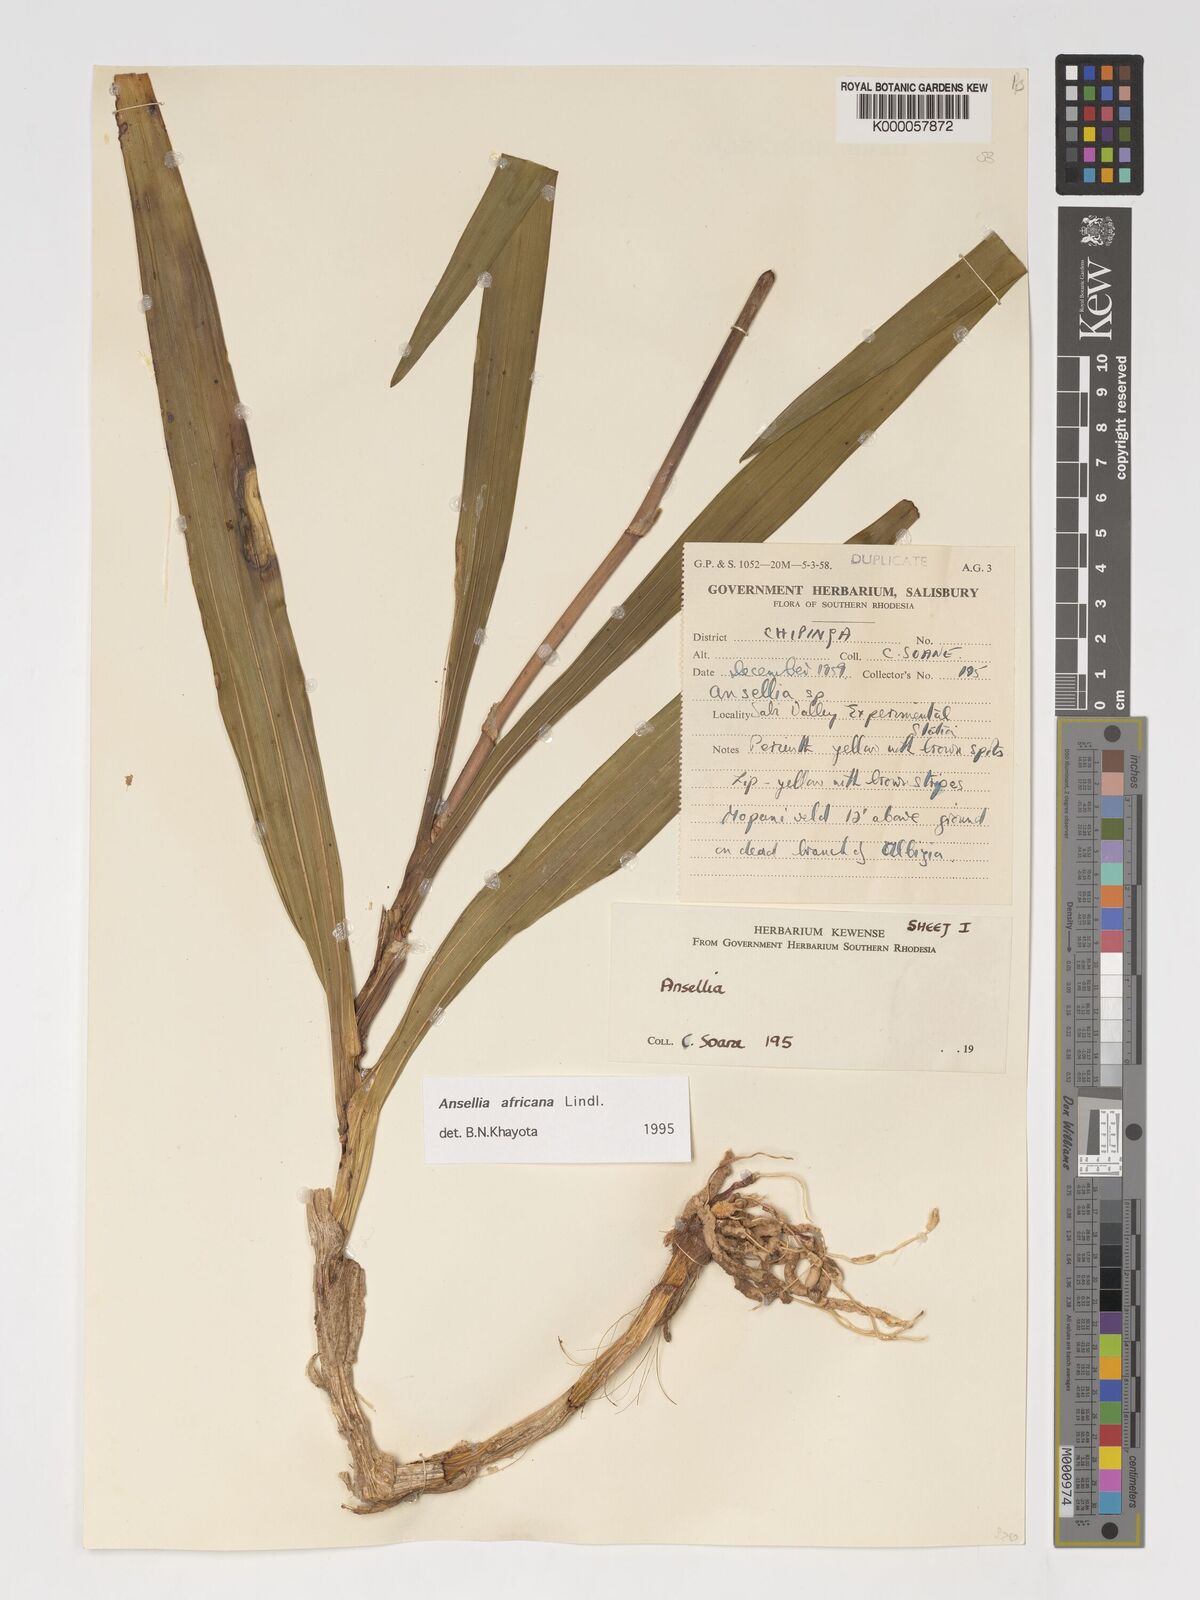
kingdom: Plantae
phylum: Tracheophyta
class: Liliopsida
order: Asparagales
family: Orchidaceae
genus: Ansellia
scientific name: Ansellia africana
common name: African ansellia
